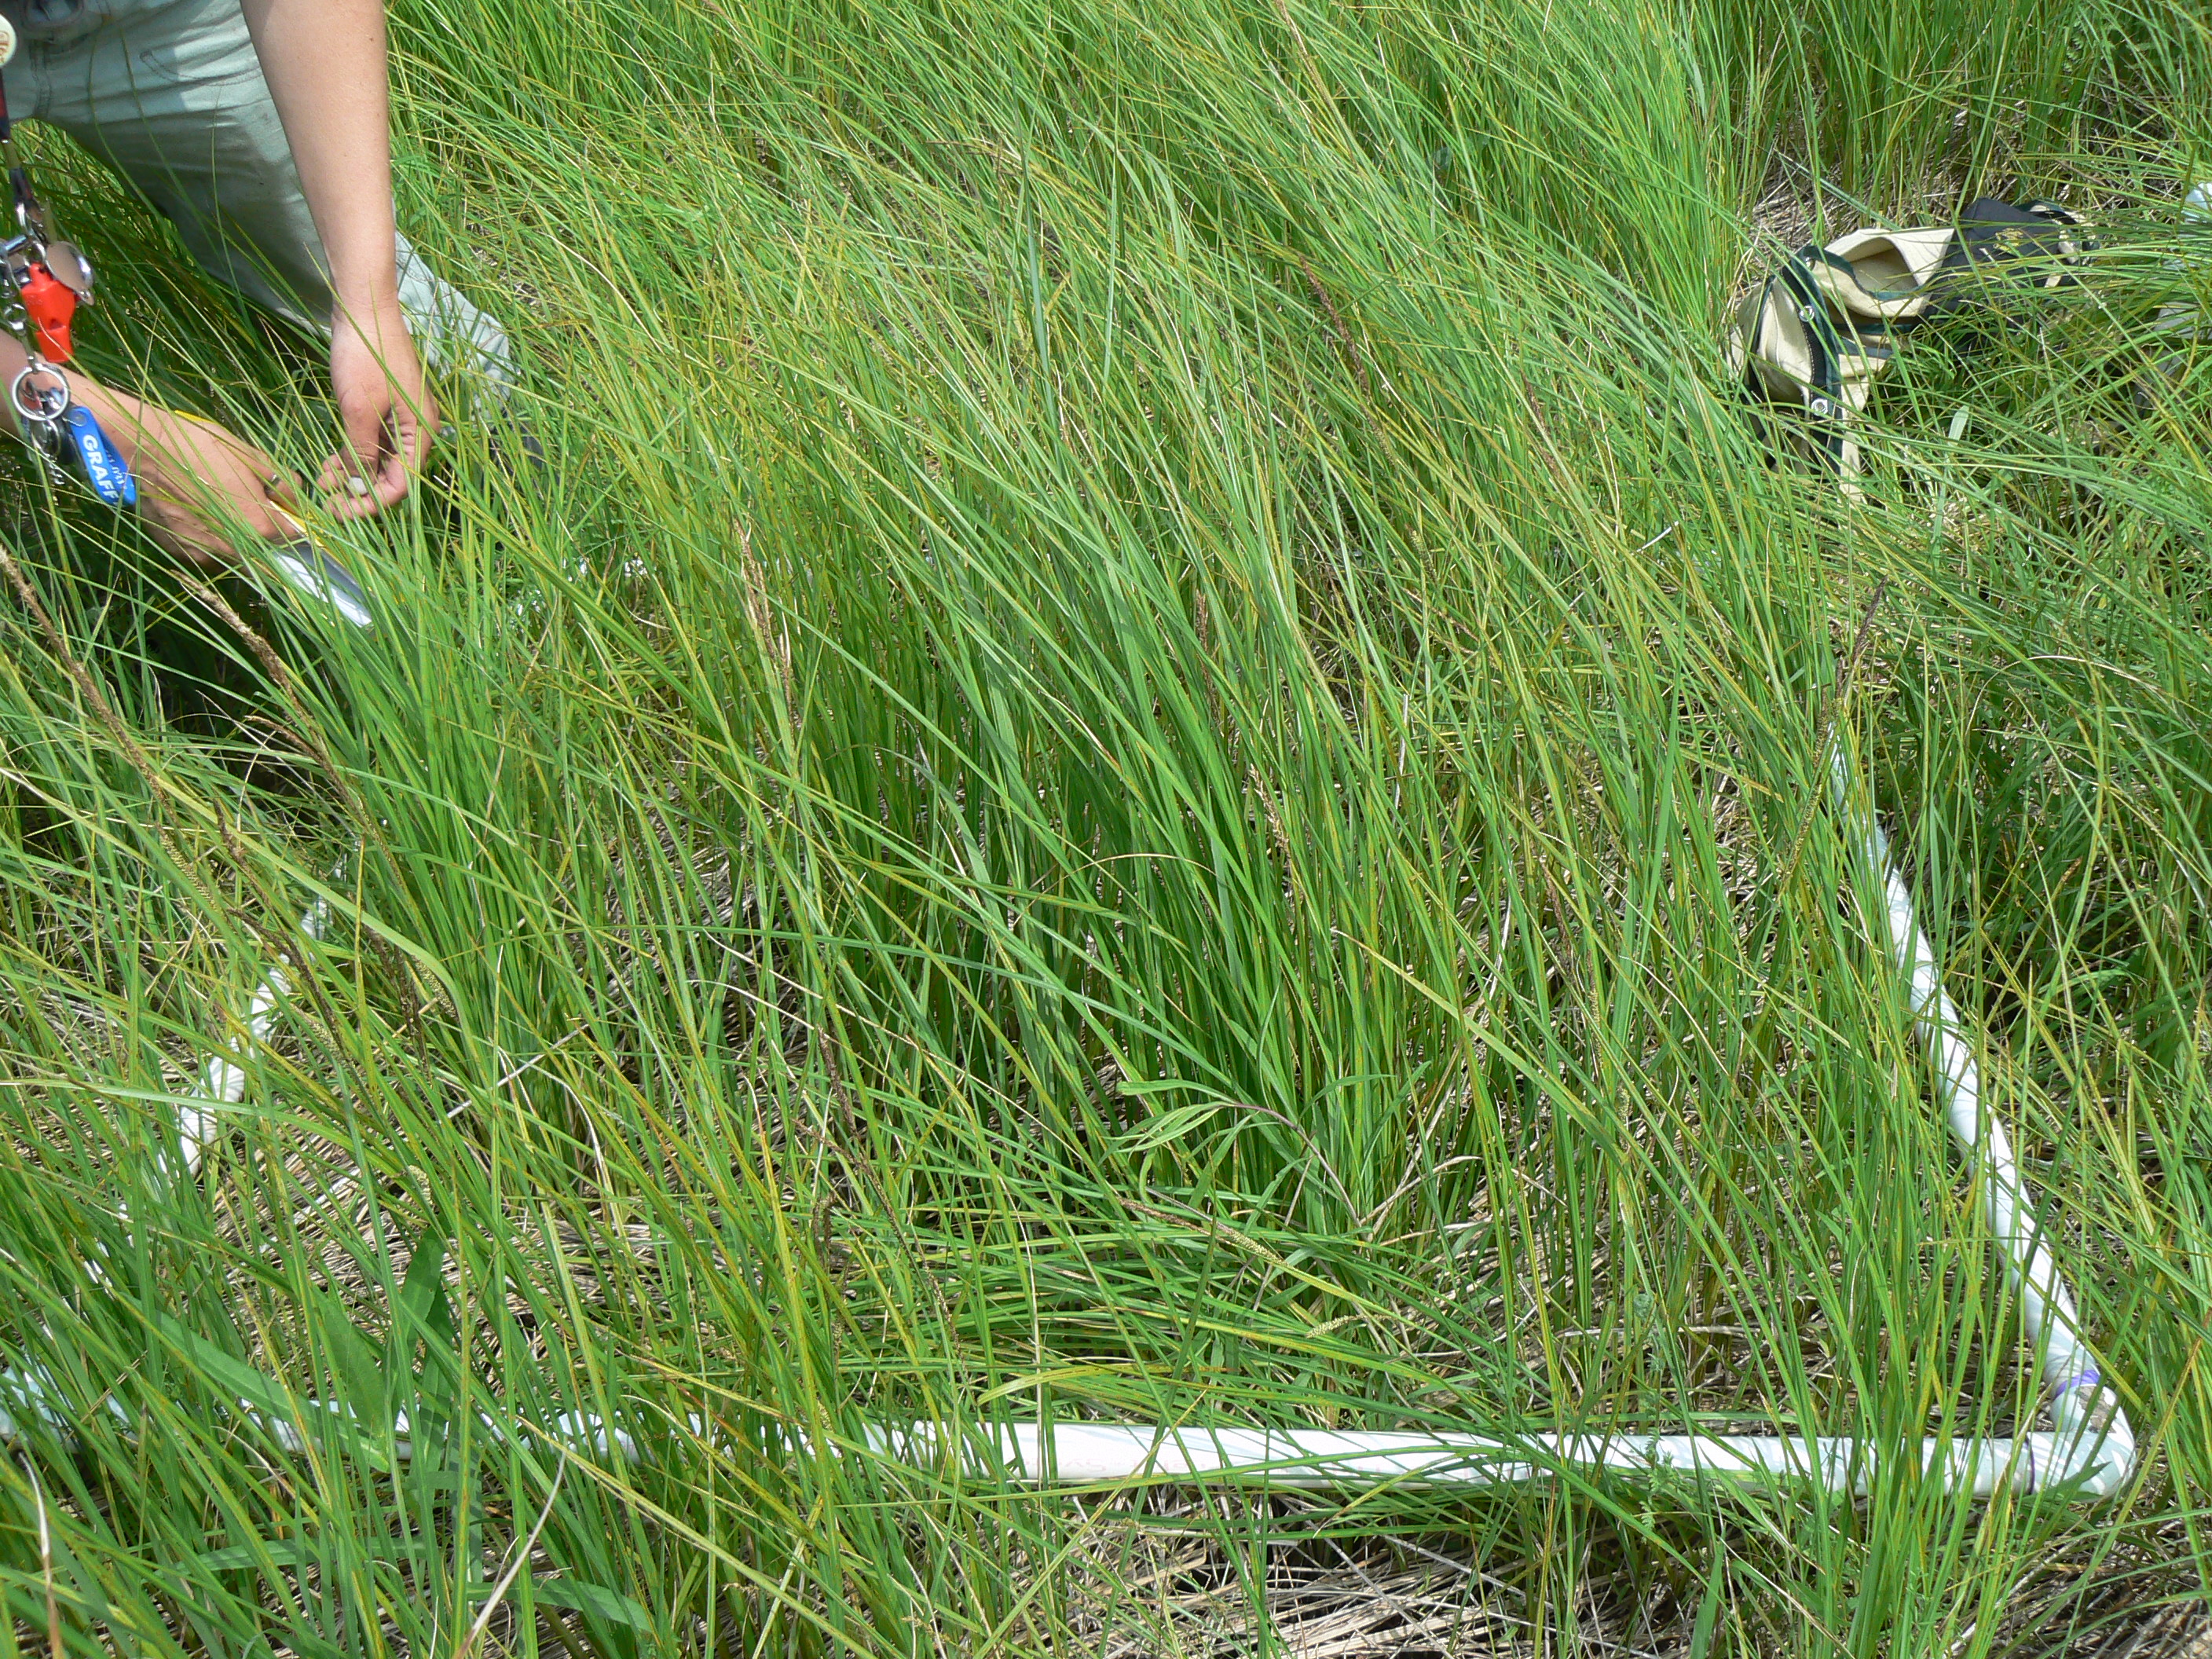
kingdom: Plantae
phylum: Tracheophyta
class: Liliopsida
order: Poales
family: Cyperaceae
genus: Carex
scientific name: Carex stricta
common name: Hummock sedge
